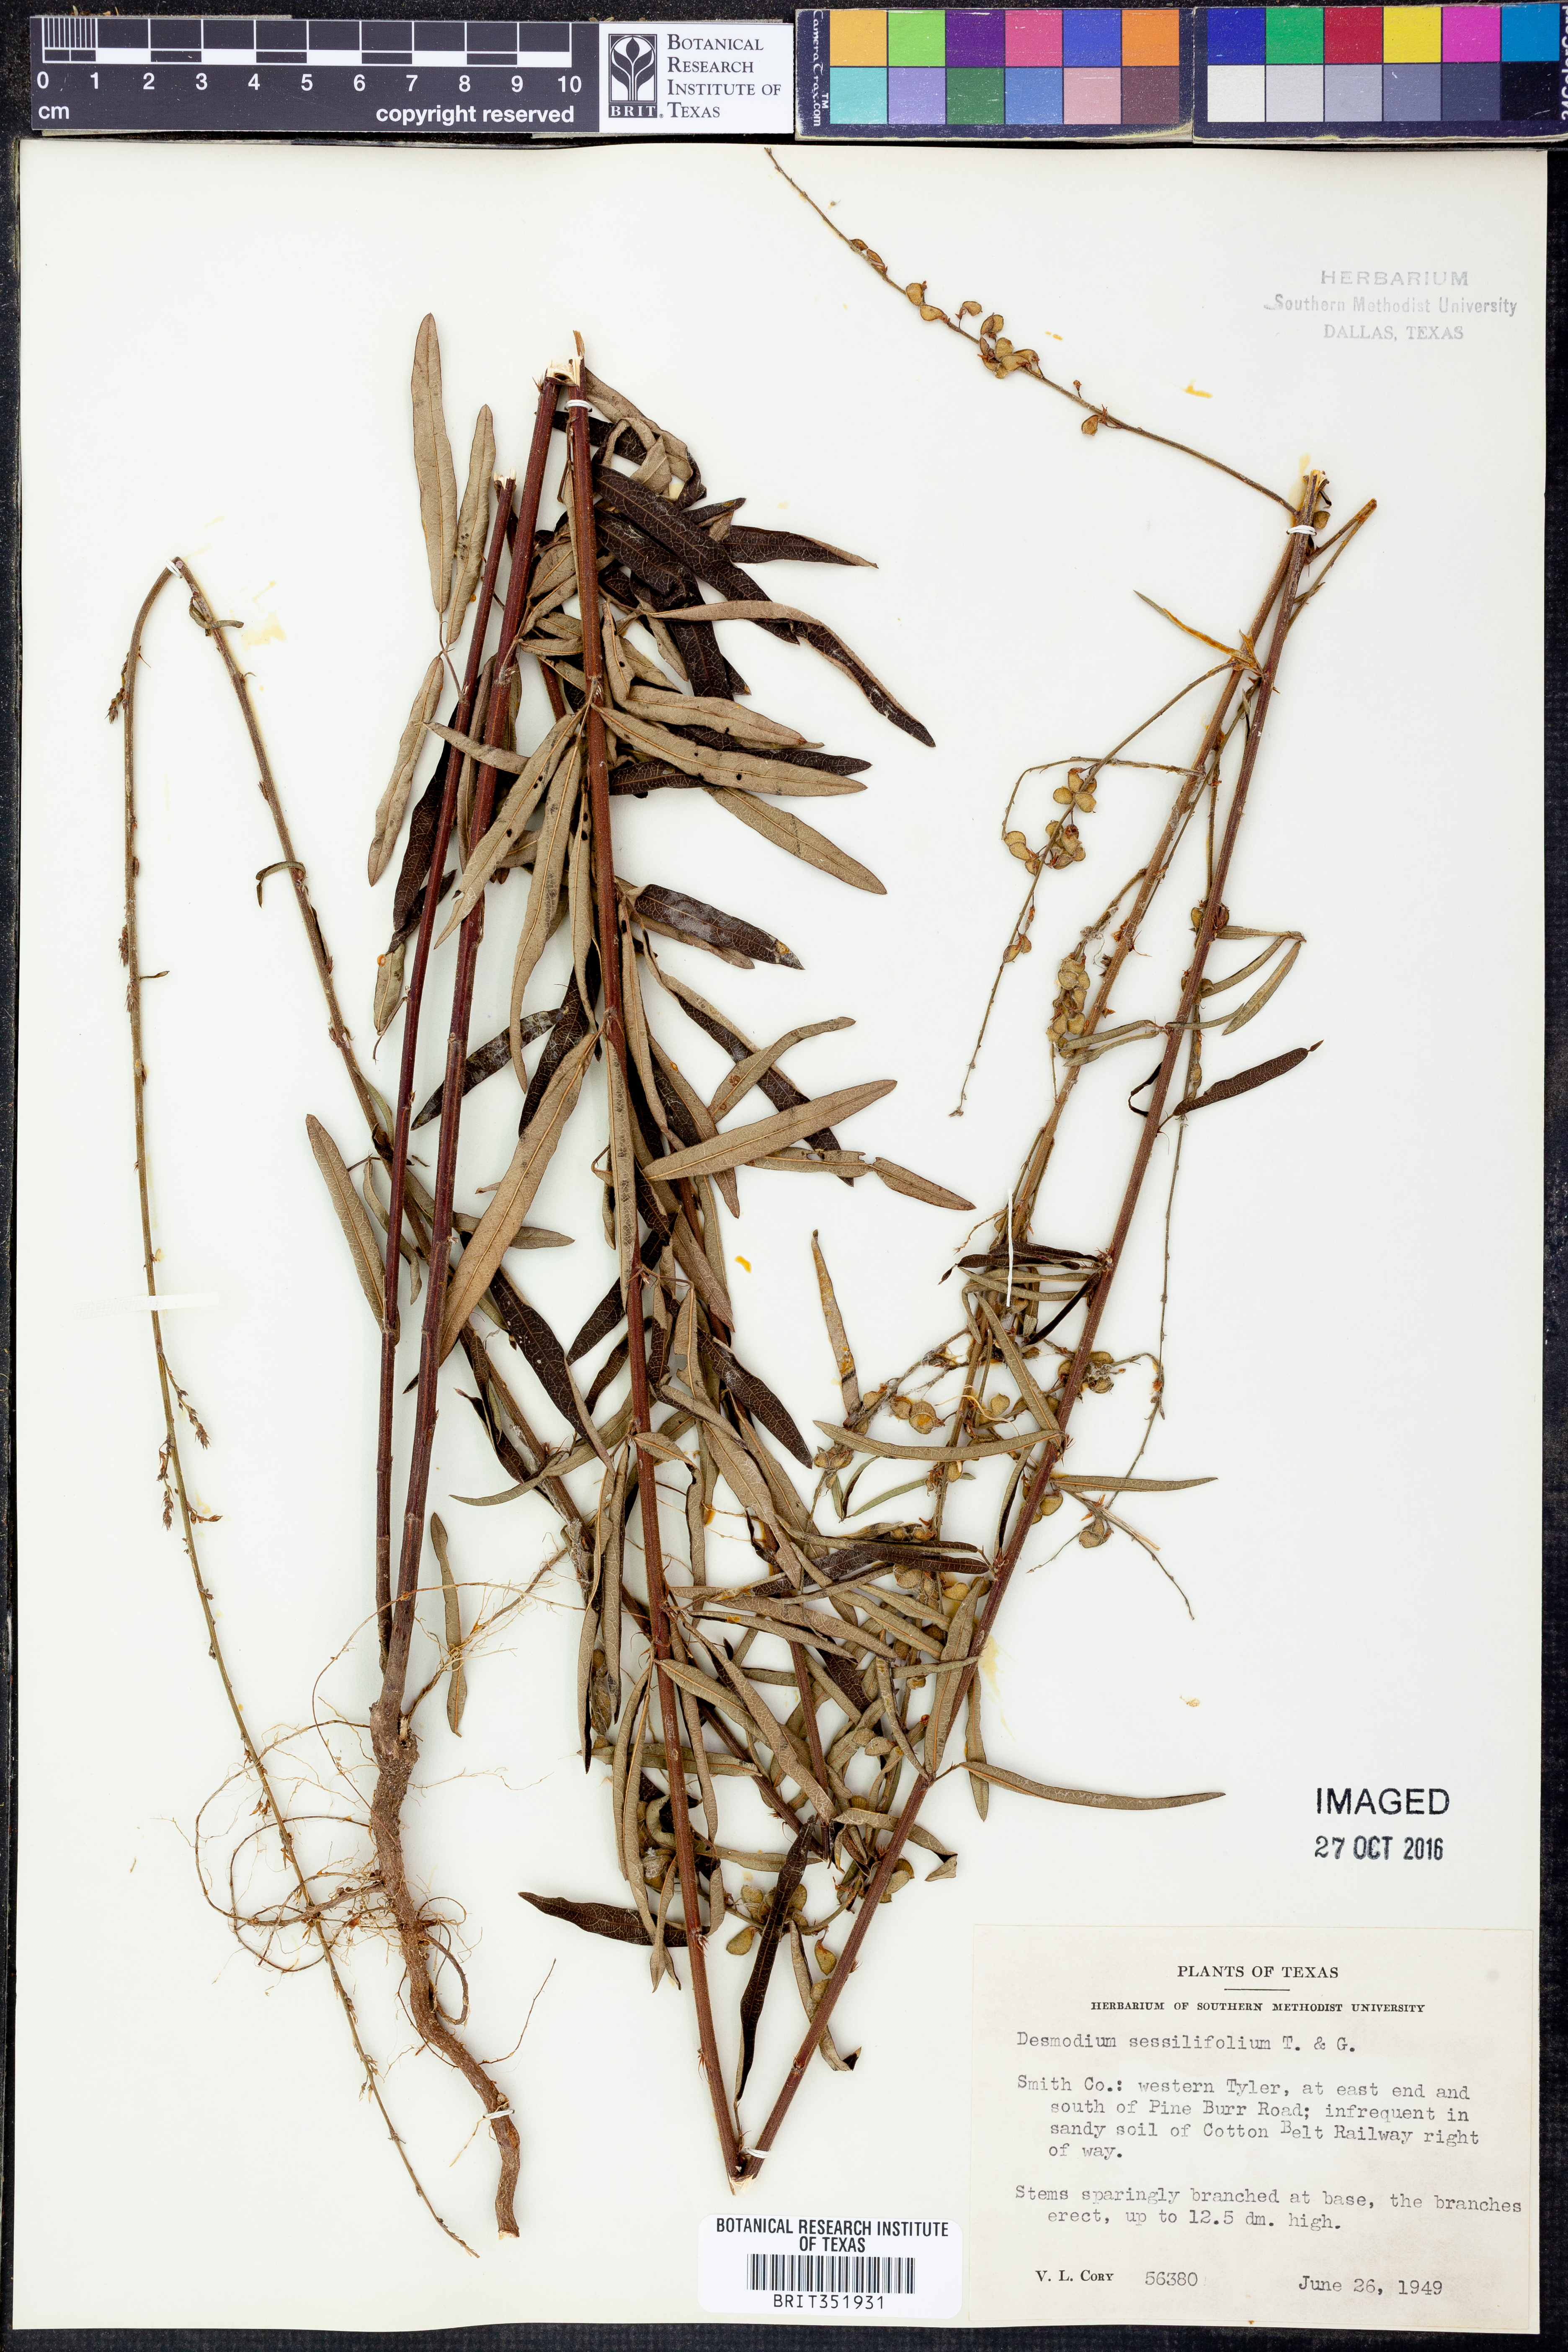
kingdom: Plantae
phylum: Tracheophyta
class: Magnoliopsida
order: Fabales
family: Fabaceae
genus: Desmodium
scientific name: Desmodium sessilifolium
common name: Sessile tick-clover
